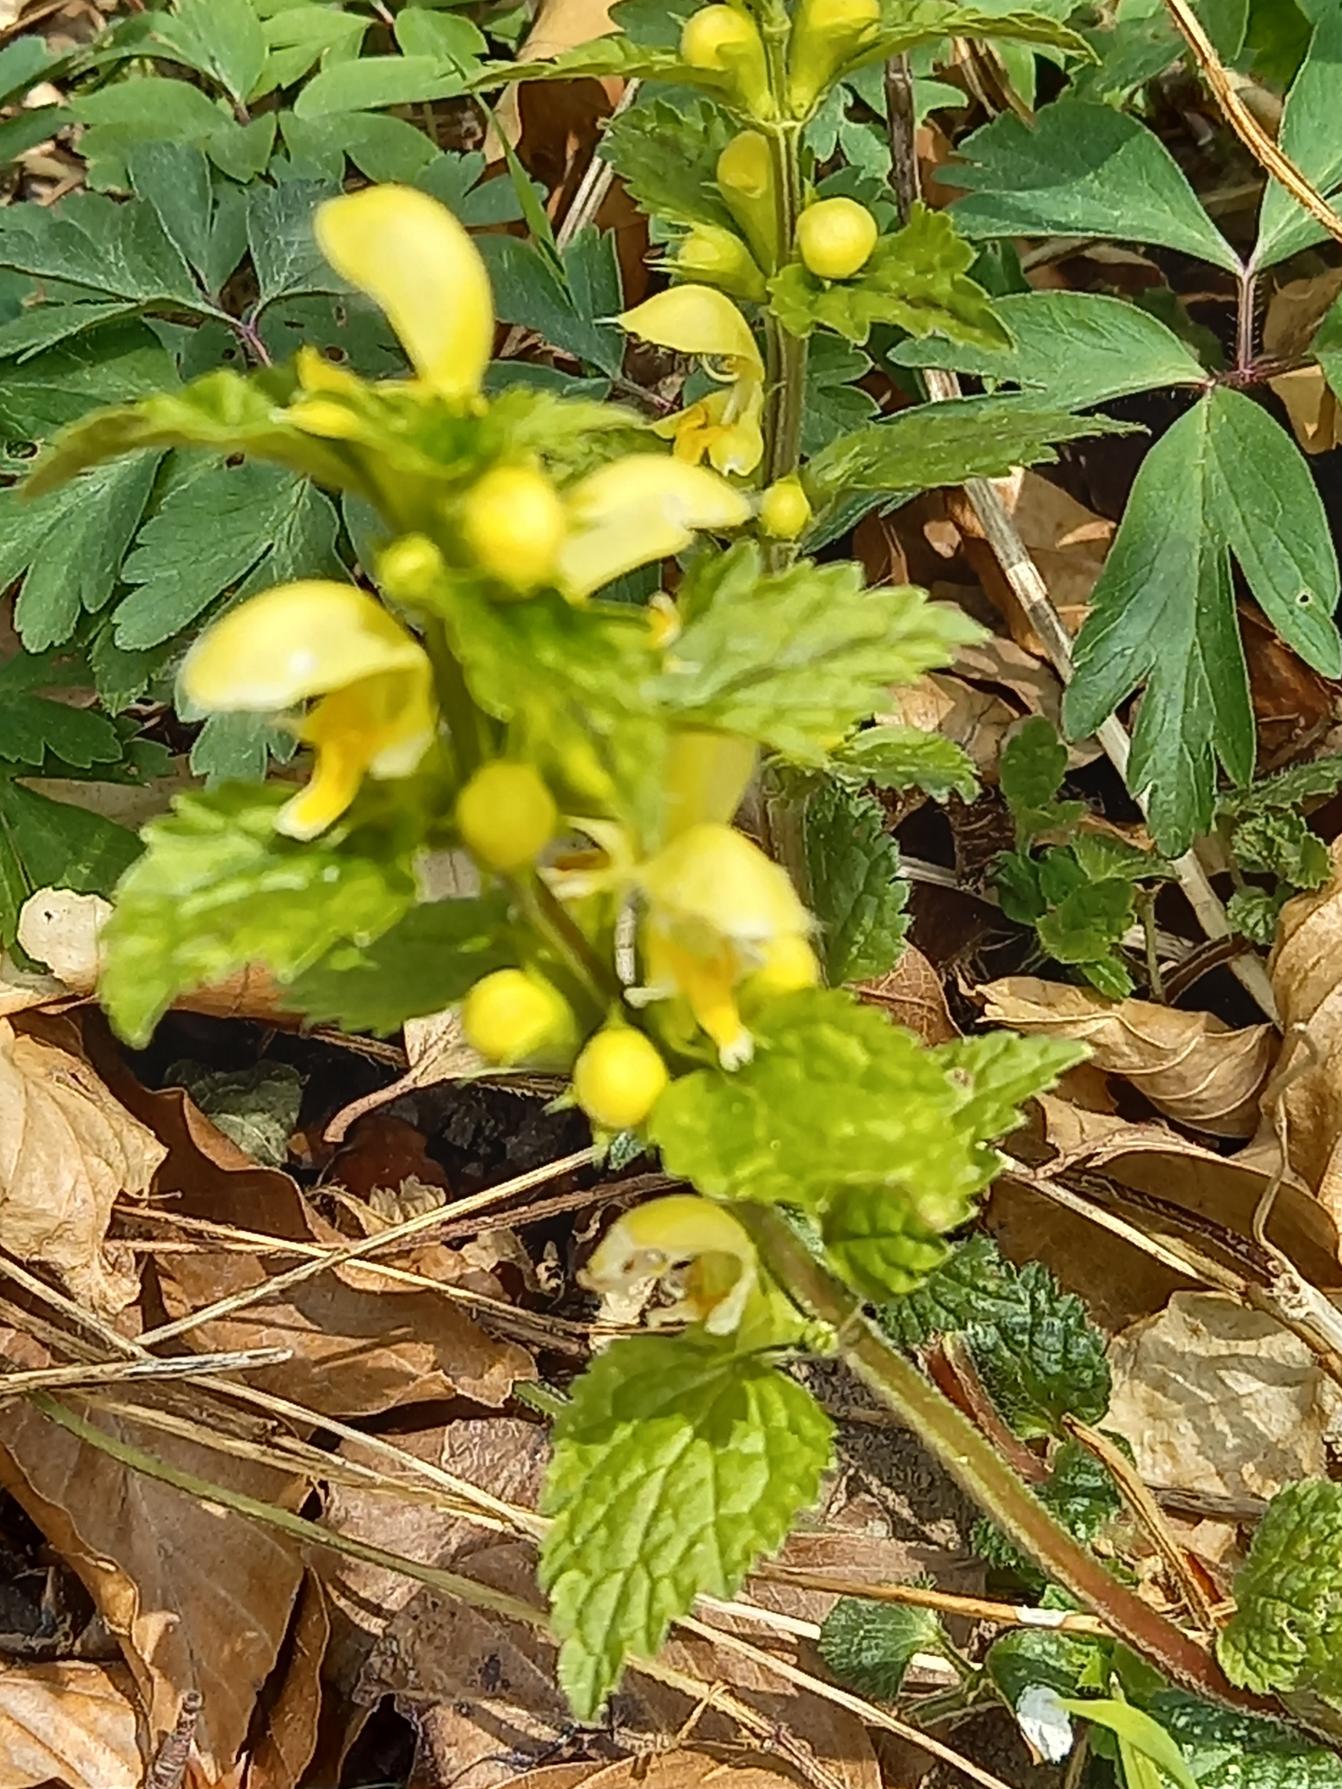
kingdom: Plantae
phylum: Tracheophyta
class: Magnoliopsida
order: Lamiales
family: Lamiaceae
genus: Lamium
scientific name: Lamium galeobdolon
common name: Guldnælde
